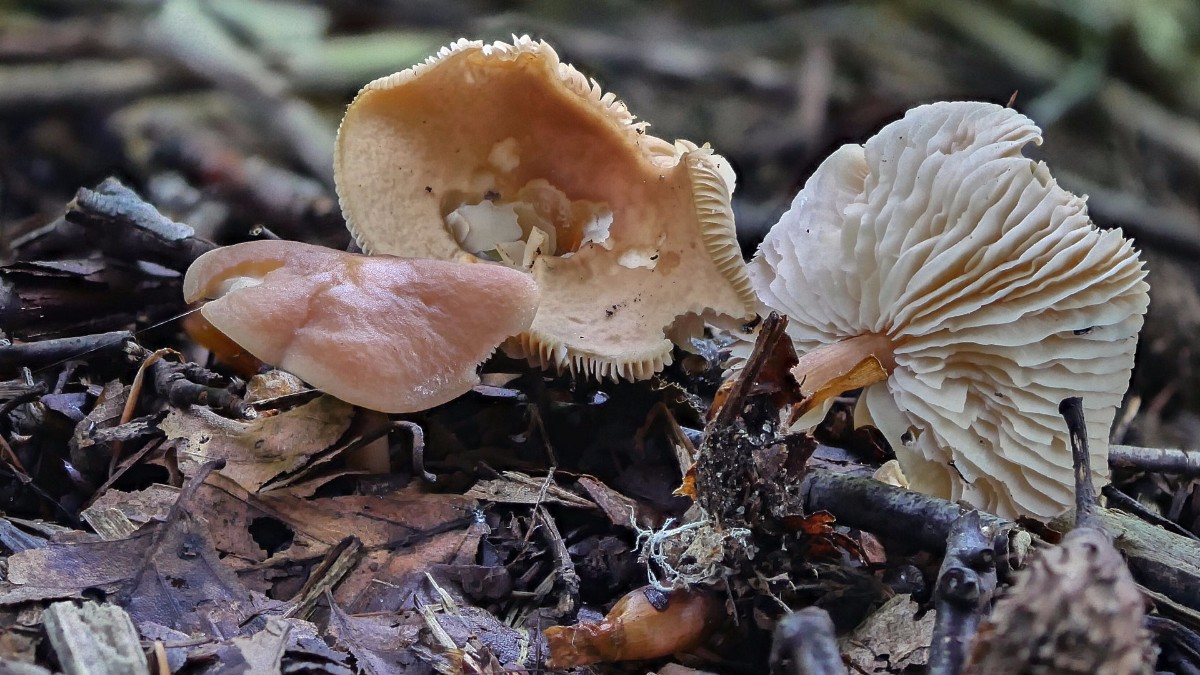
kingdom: Fungi
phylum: Basidiomycota
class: Agaricomycetes
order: Agaricales
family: Omphalotaceae
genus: Gymnopus
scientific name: Gymnopus ocior
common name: mørk fladhat
